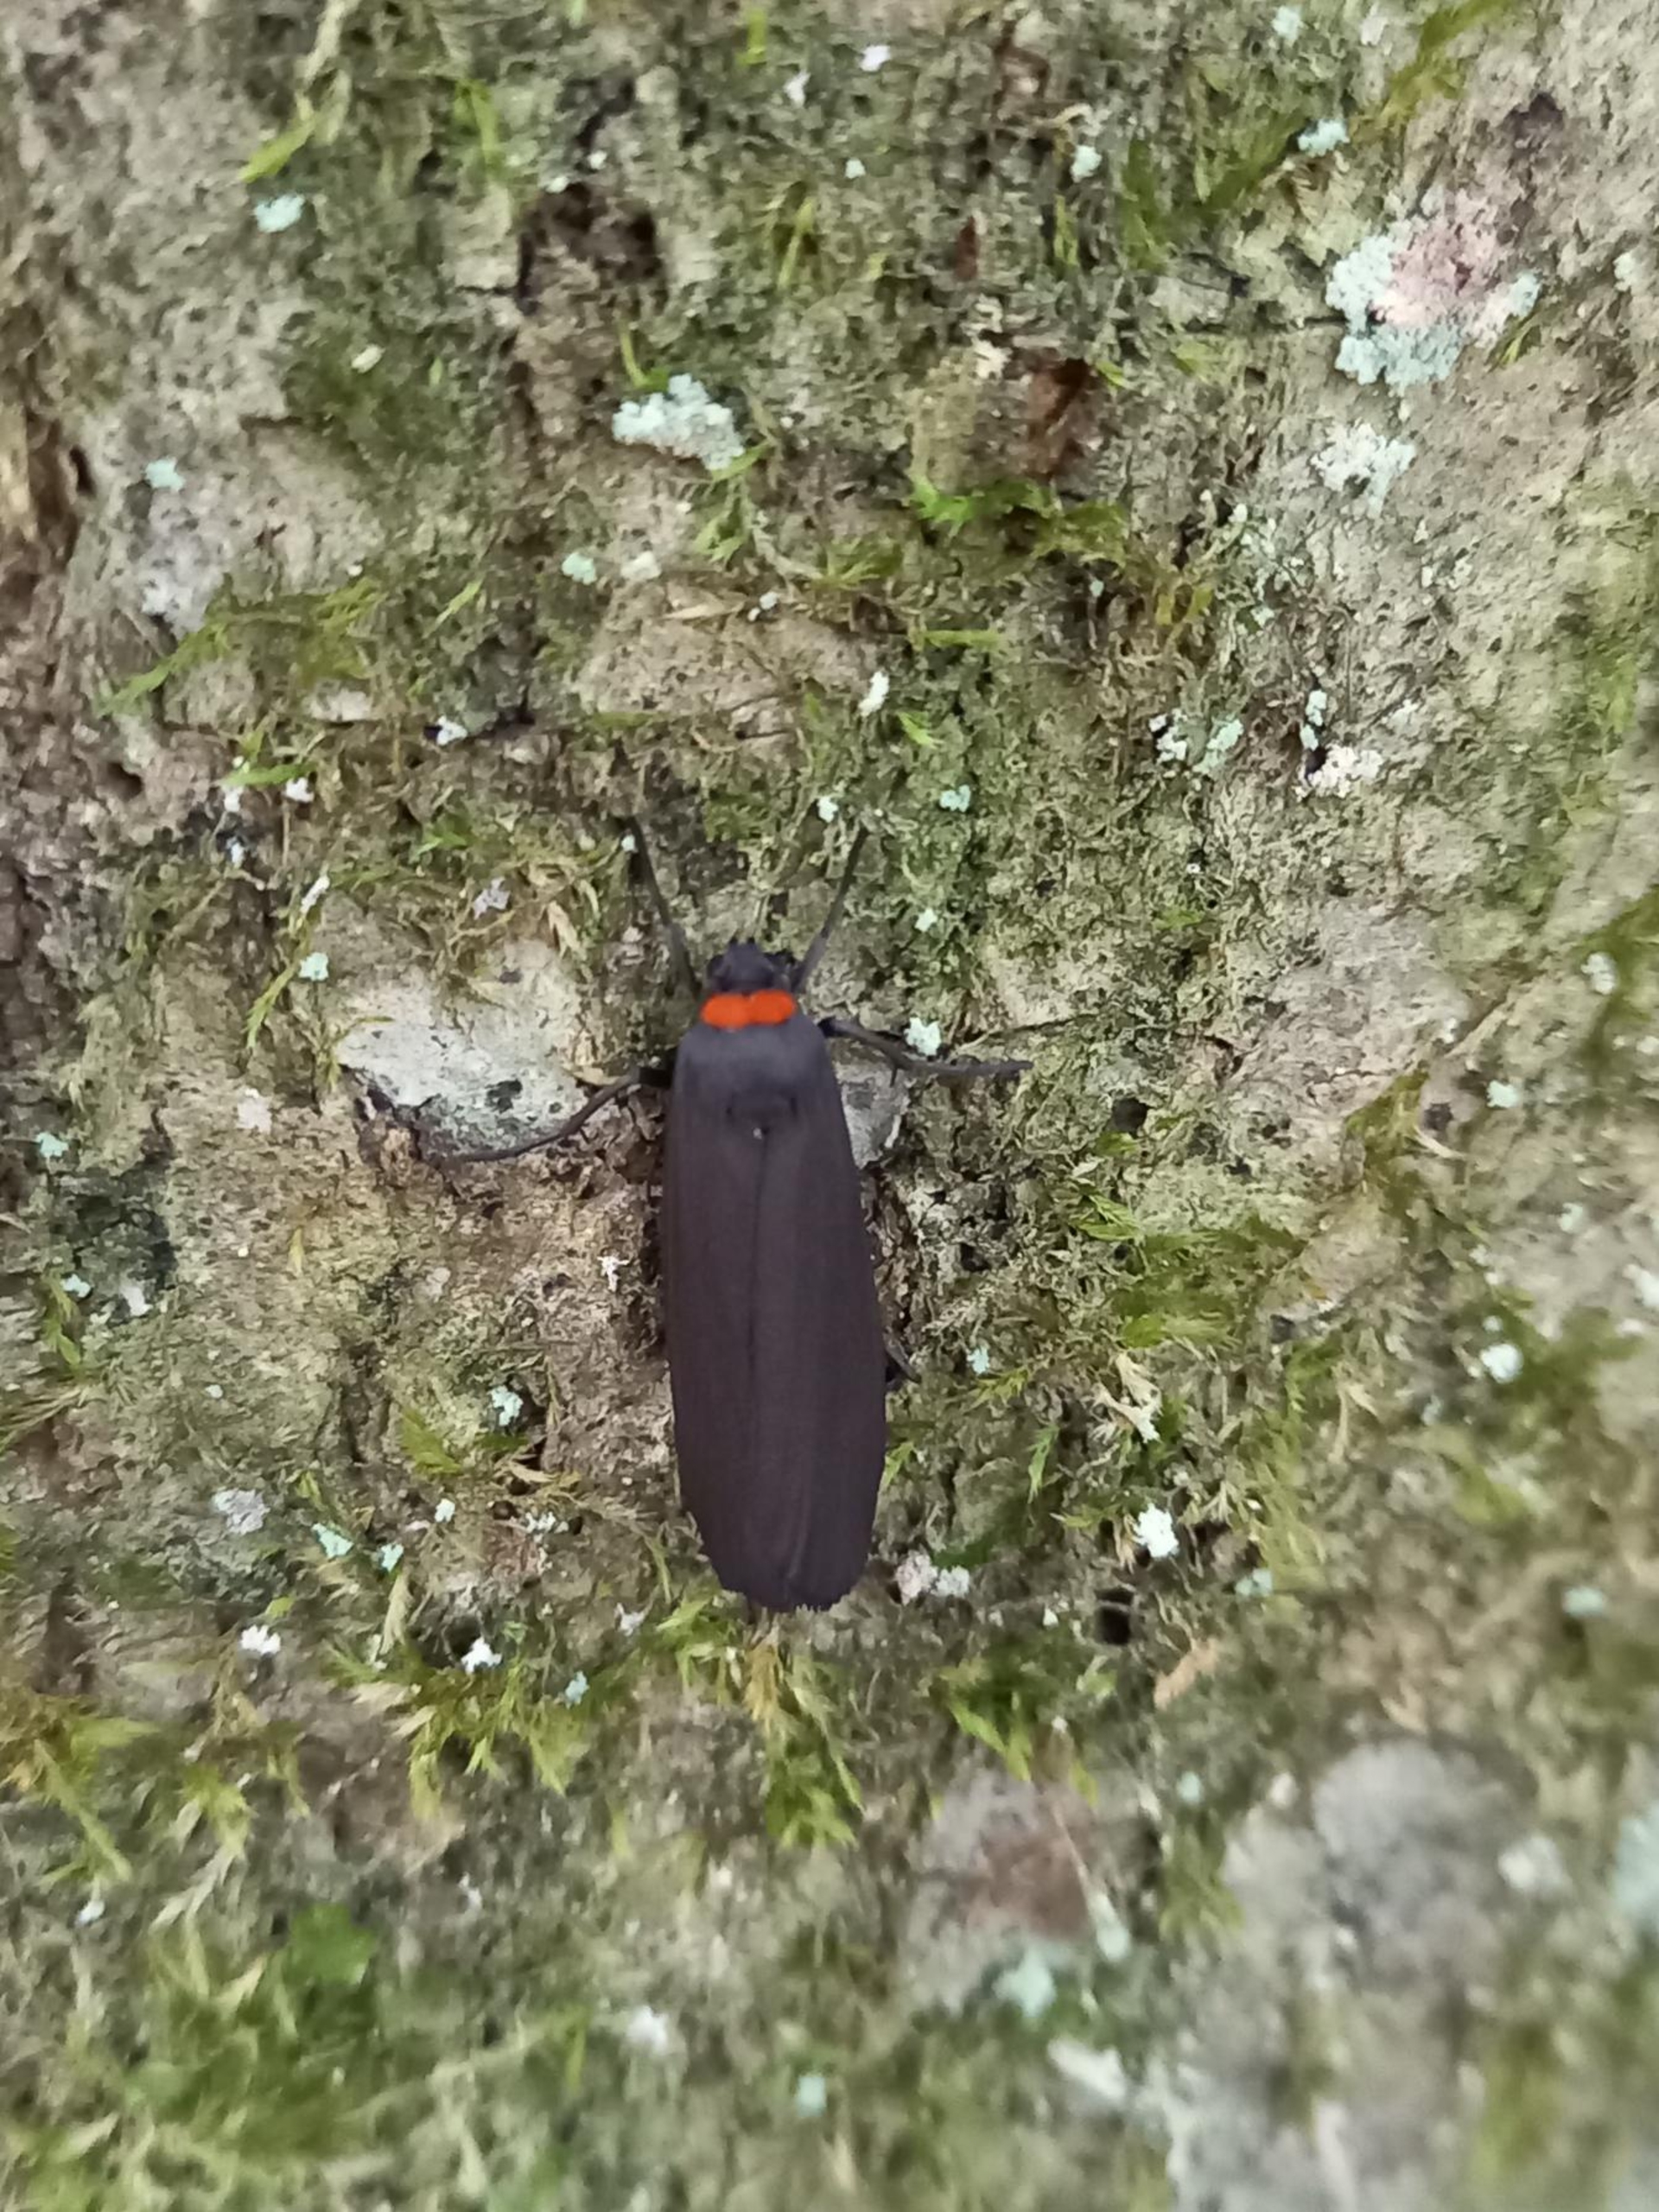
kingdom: Animalia
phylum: Arthropoda
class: Insecta
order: Lepidoptera
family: Erebidae
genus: Atolmis
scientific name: Atolmis rubricollis
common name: Blodnakke
